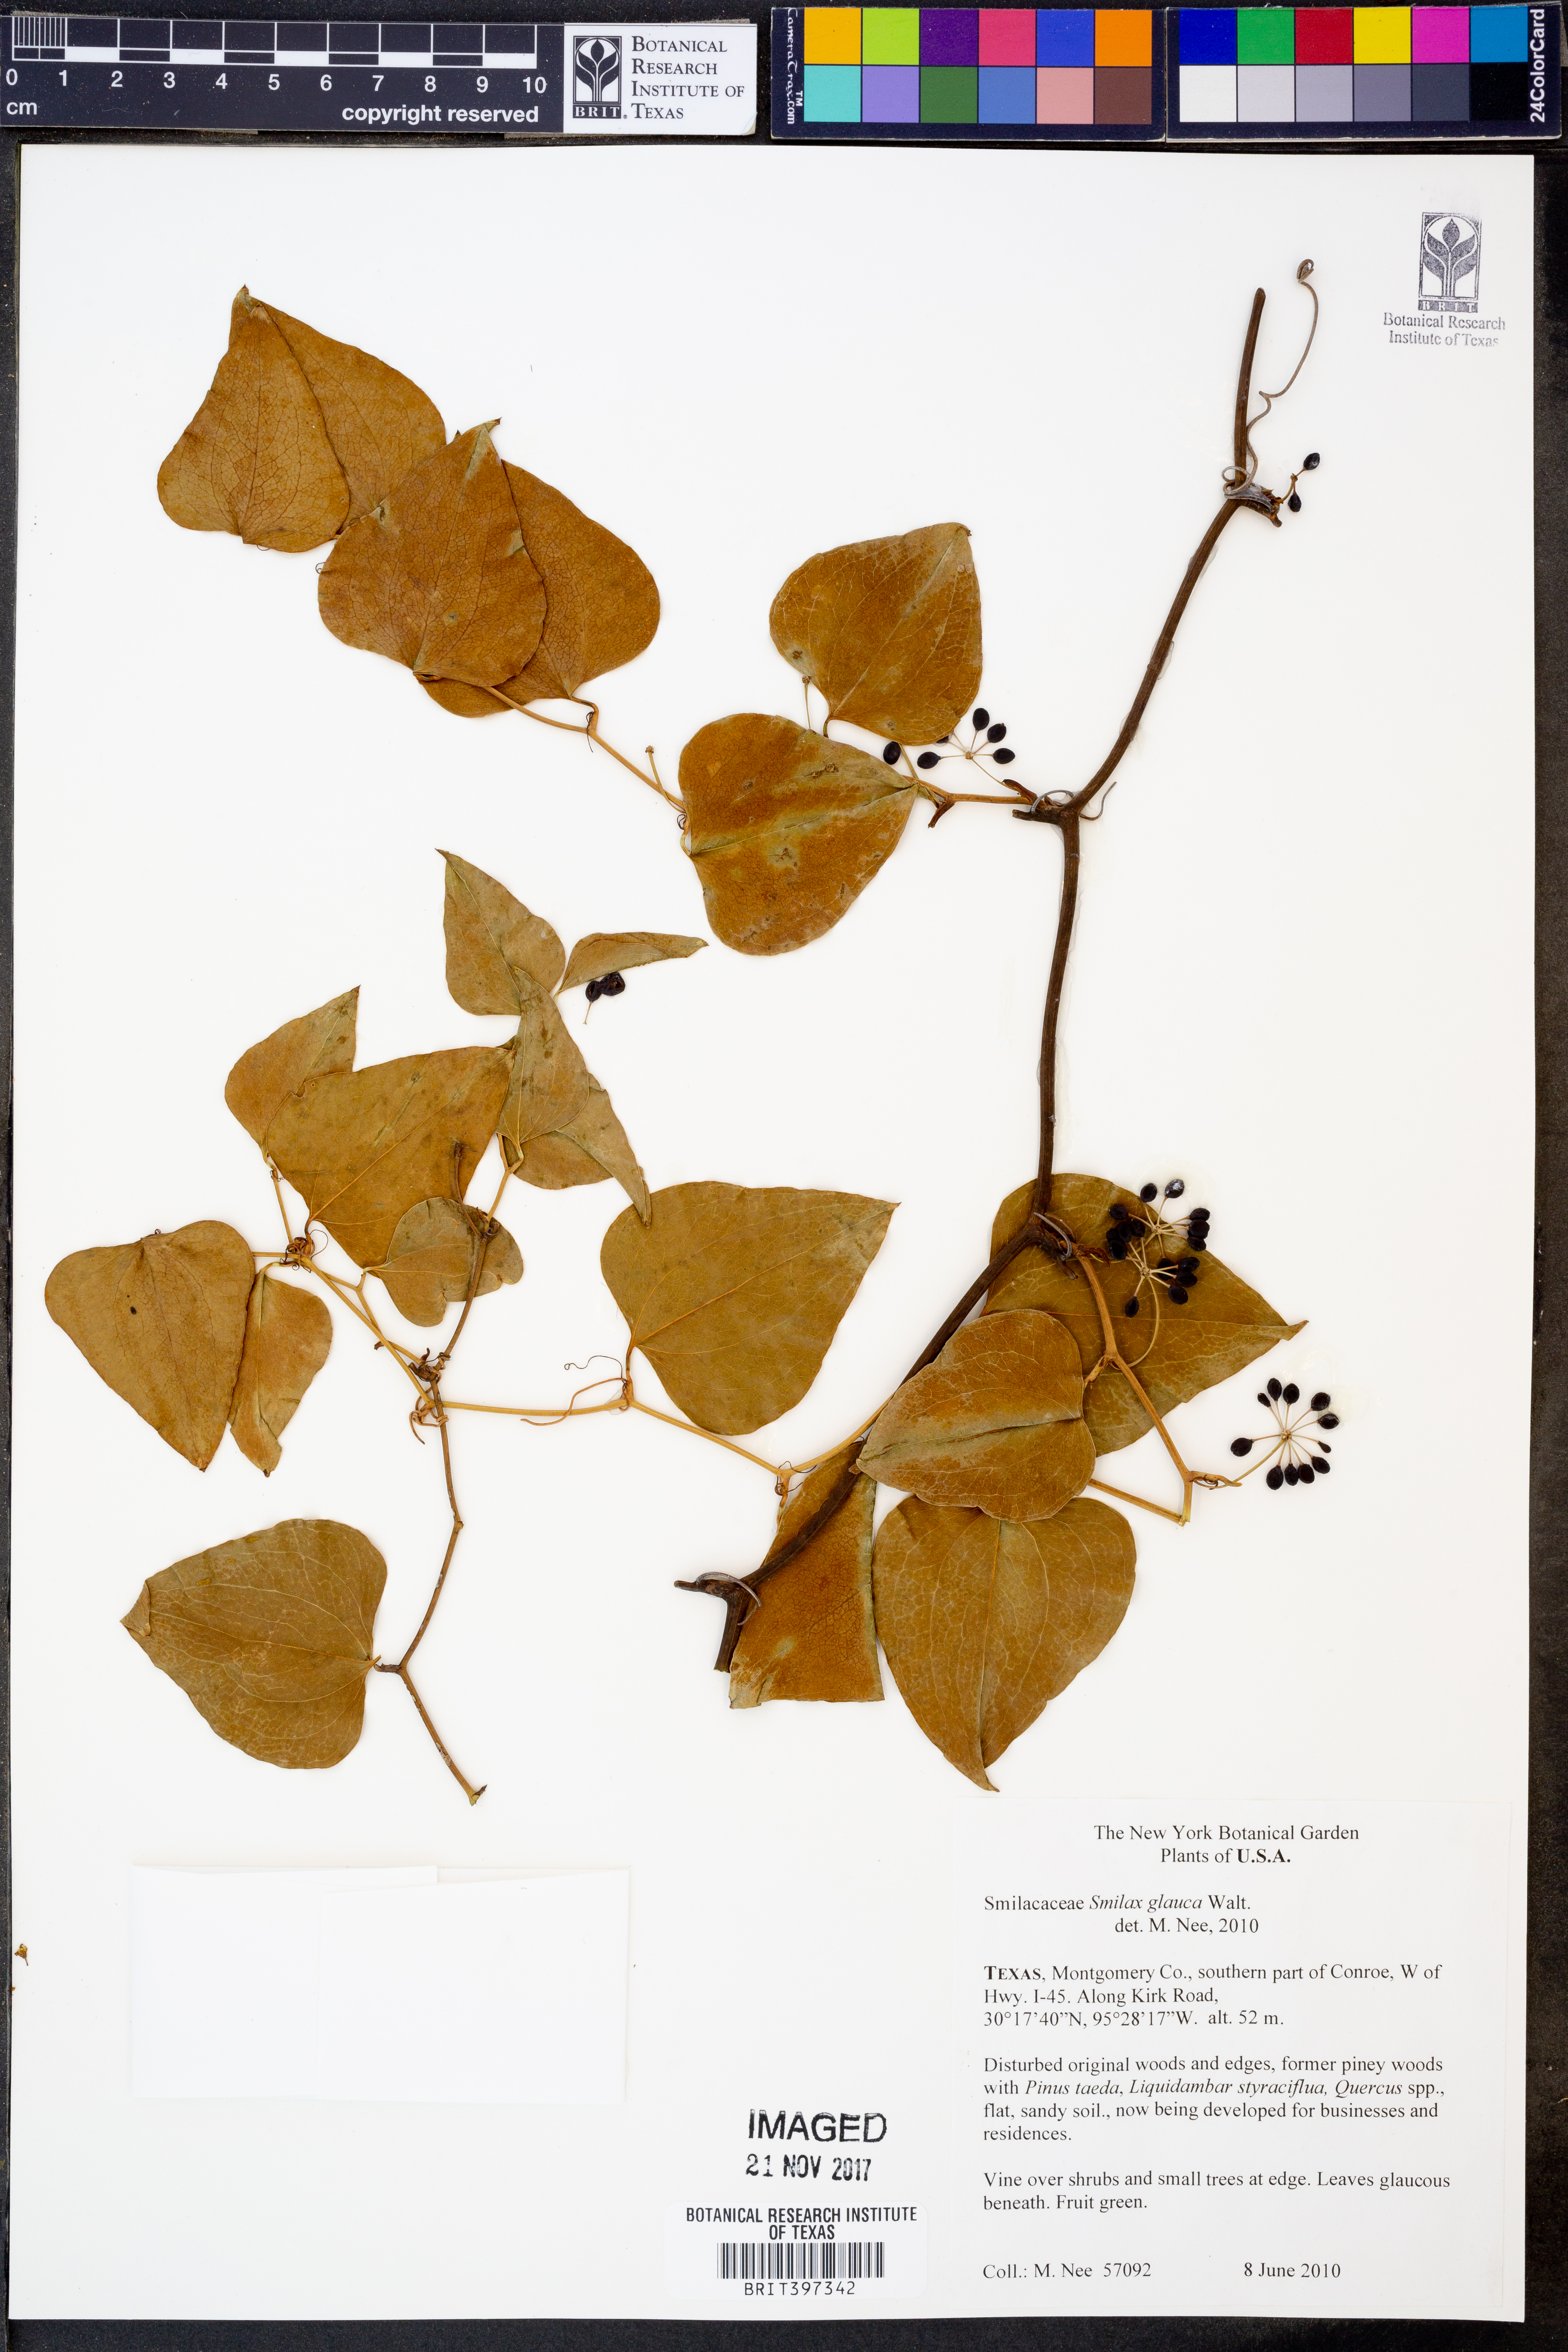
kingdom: Plantae
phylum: Tracheophyta
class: Liliopsida
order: Liliales
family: Smilacaceae
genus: Smilax
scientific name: Smilax glauca
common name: Cat greenbrier
